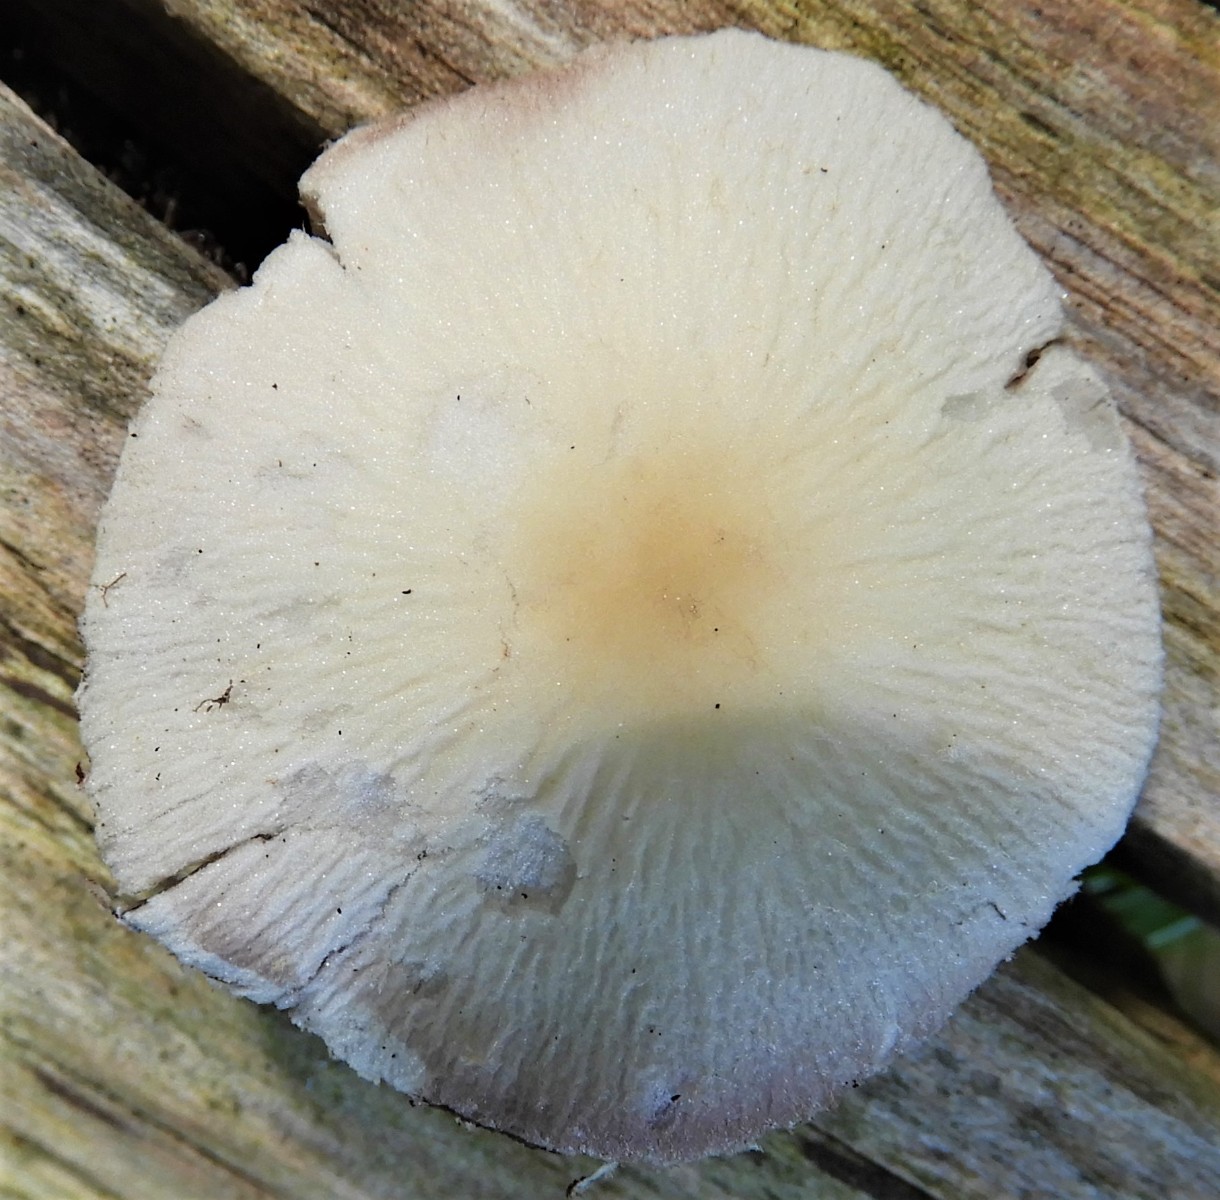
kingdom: Fungi
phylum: Basidiomycota
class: Agaricomycetes
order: Agaricales
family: Psathyrellaceae
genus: Candolleomyces
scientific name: Candolleomyces candolleanus
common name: Candolles mørkhat
